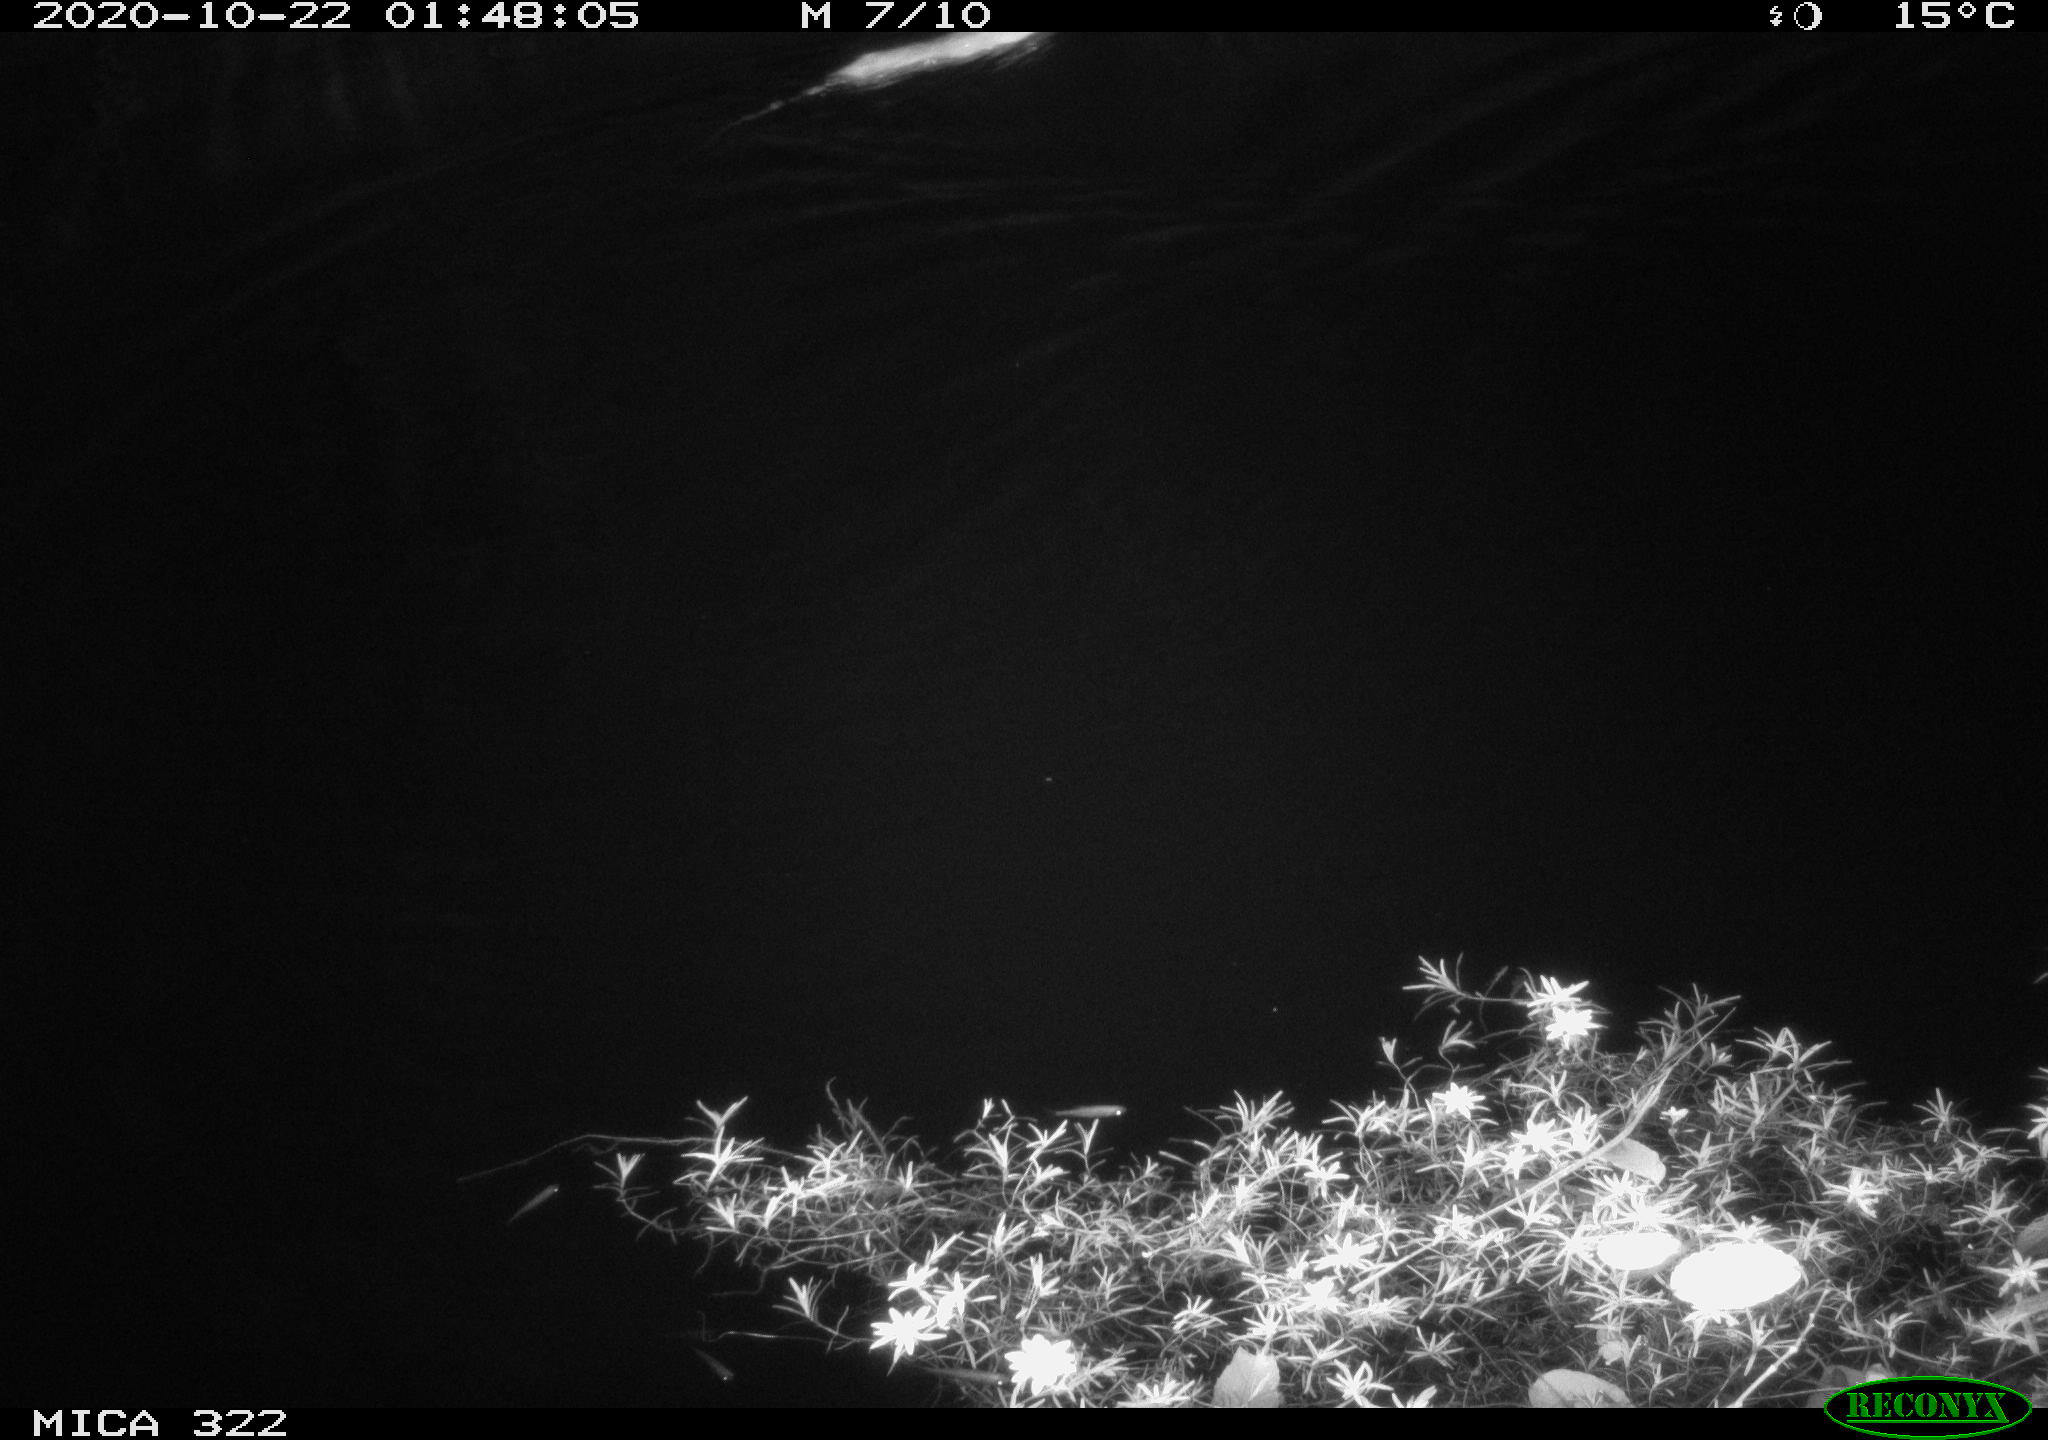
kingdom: Animalia
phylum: Chordata
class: Mammalia
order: Rodentia
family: Muridae
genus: Rattus
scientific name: Rattus norvegicus
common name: Brown rat
